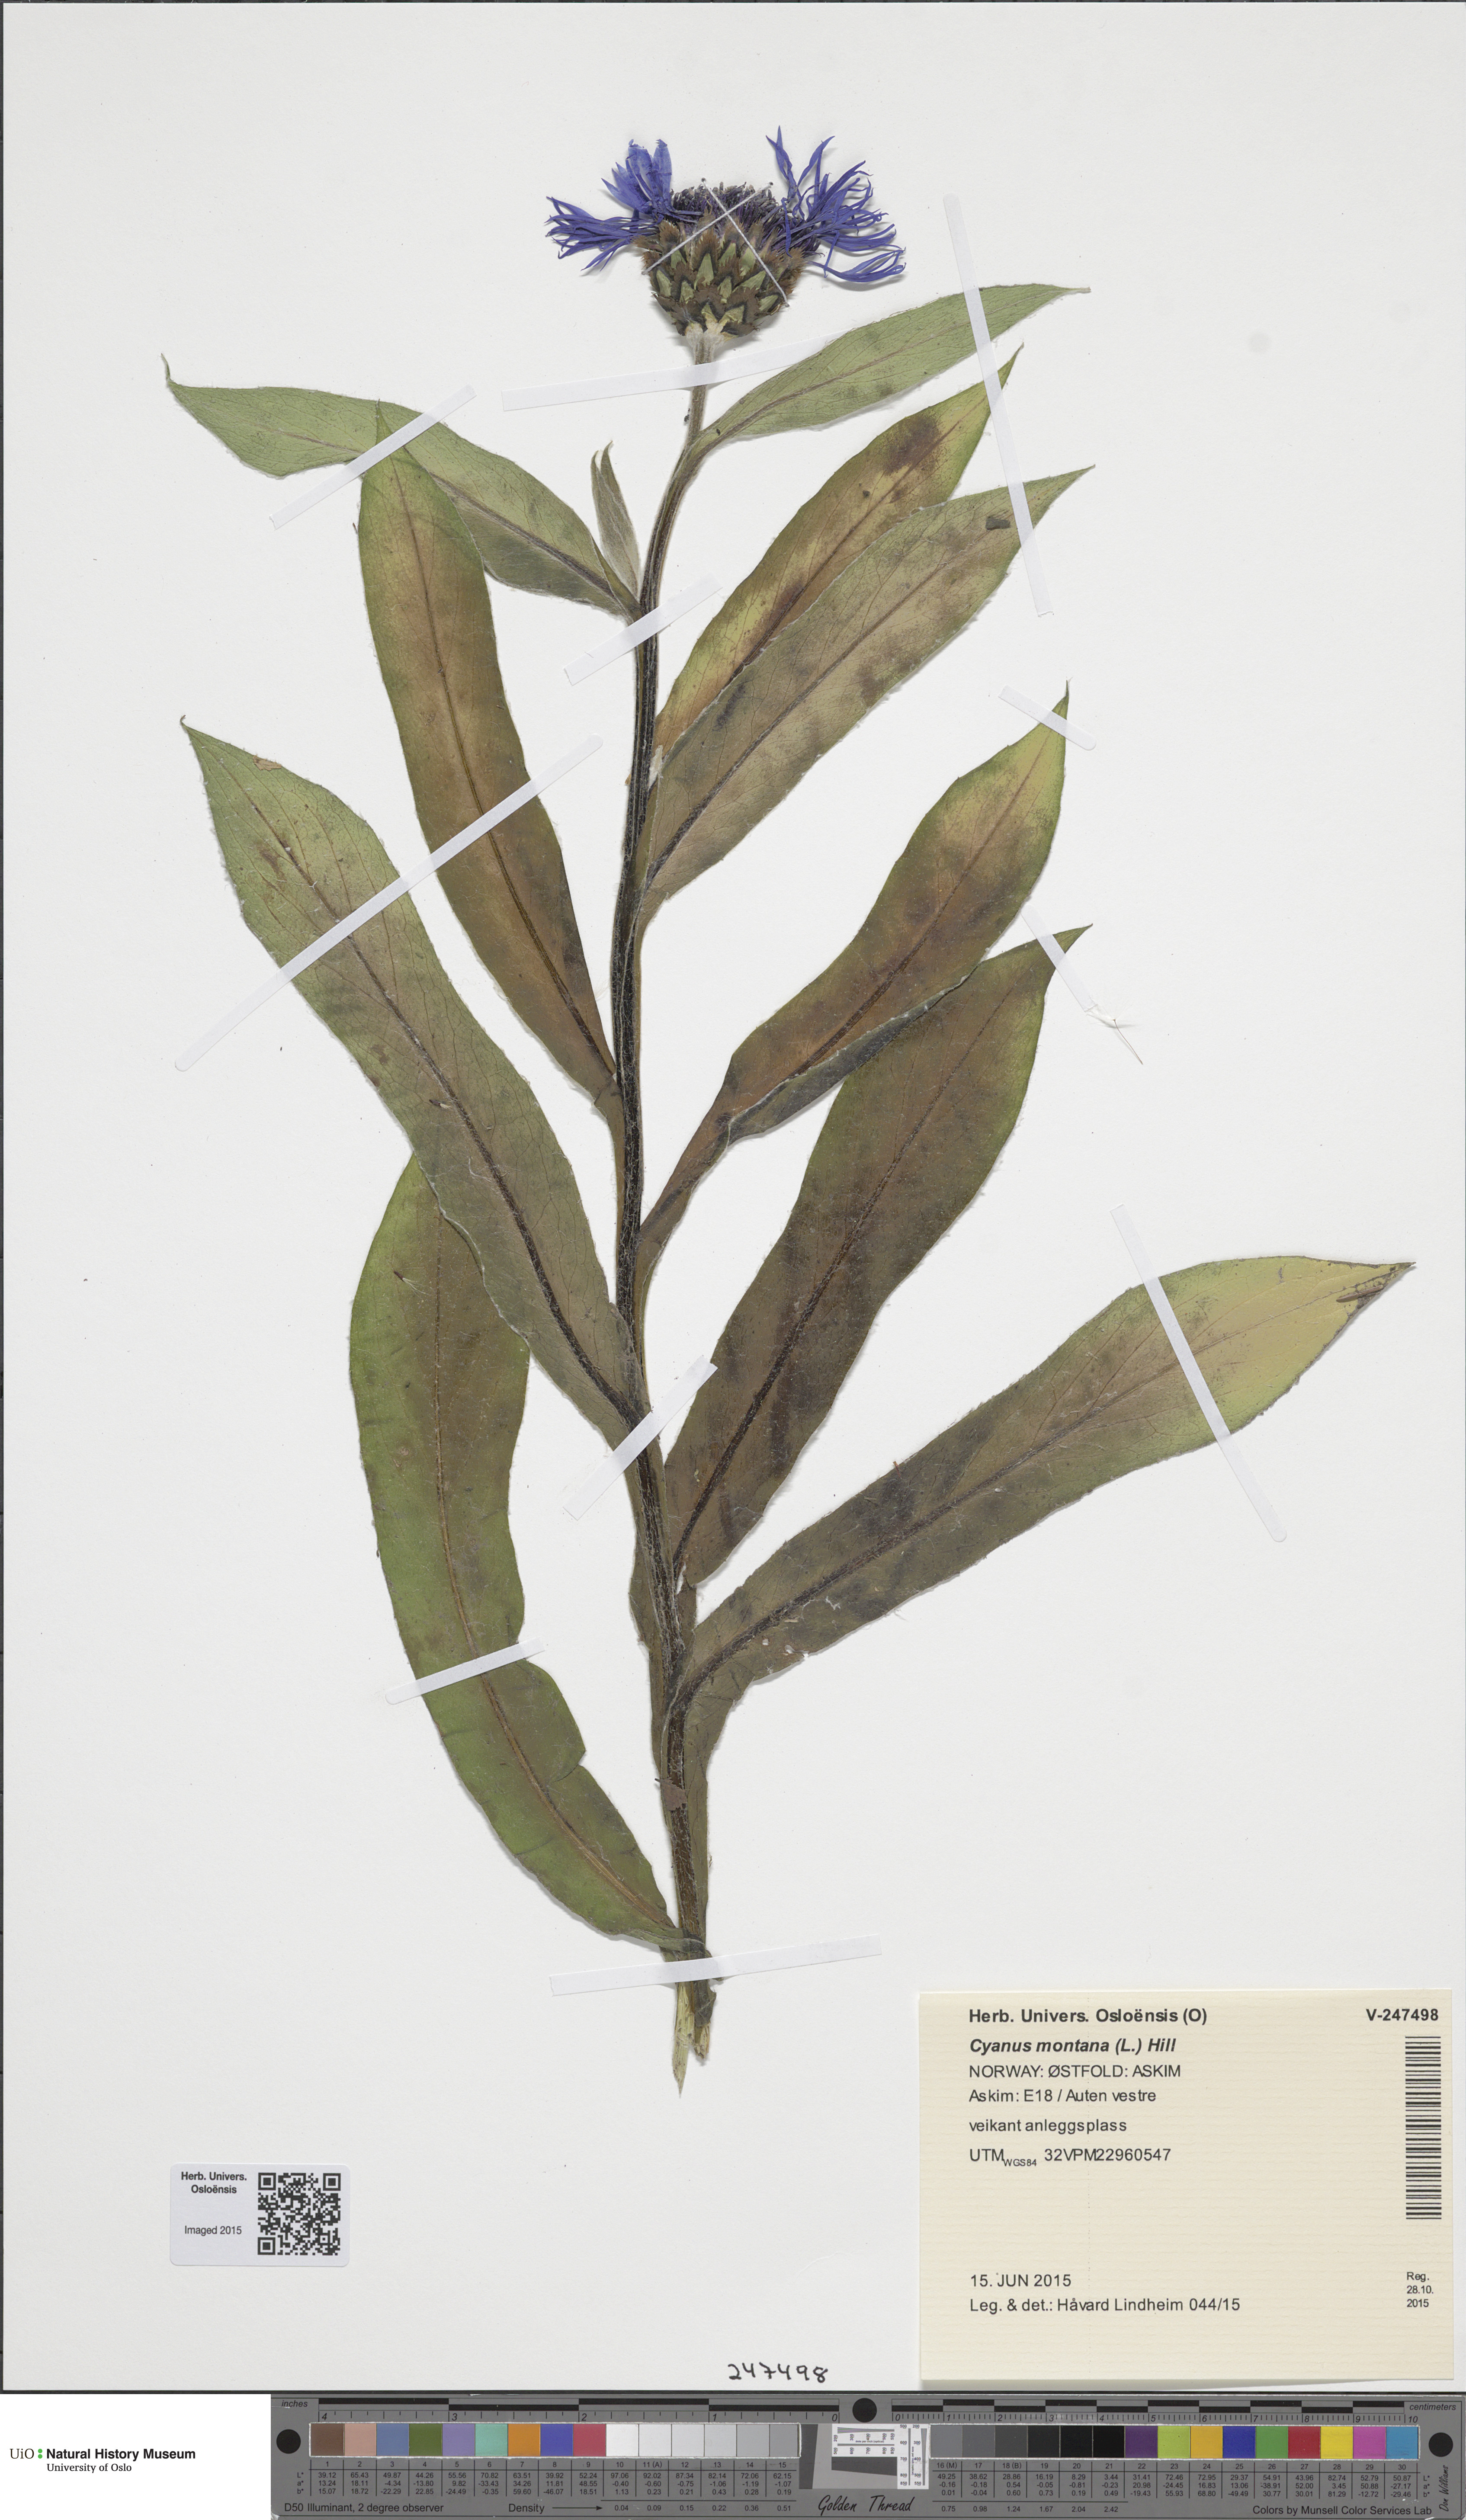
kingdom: Plantae
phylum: Tracheophyta
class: Magnoliopsida
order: Asterales
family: Asteraceae
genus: Centaurea
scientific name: Centaurea montana
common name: Perennial cornflower
